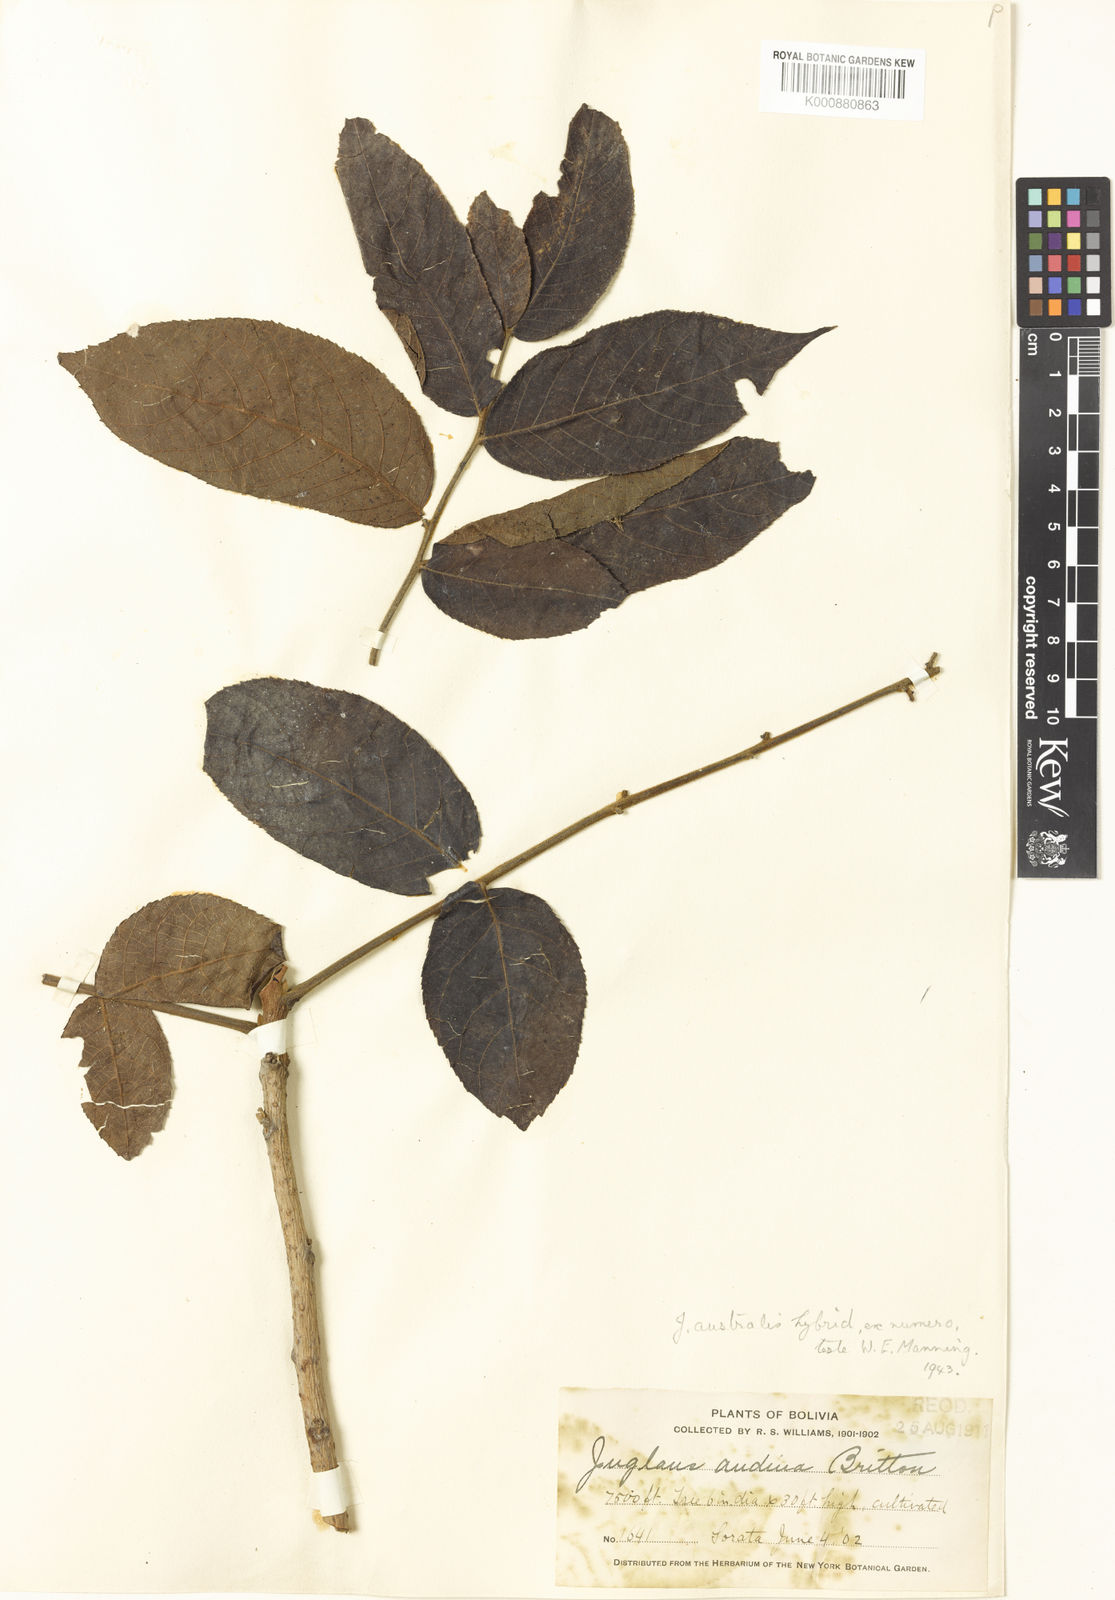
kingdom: Plantae
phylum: Tracheophyta
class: Magnoliopsida
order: Fagales
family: Juglandaceae
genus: Juglans
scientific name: Juglans
